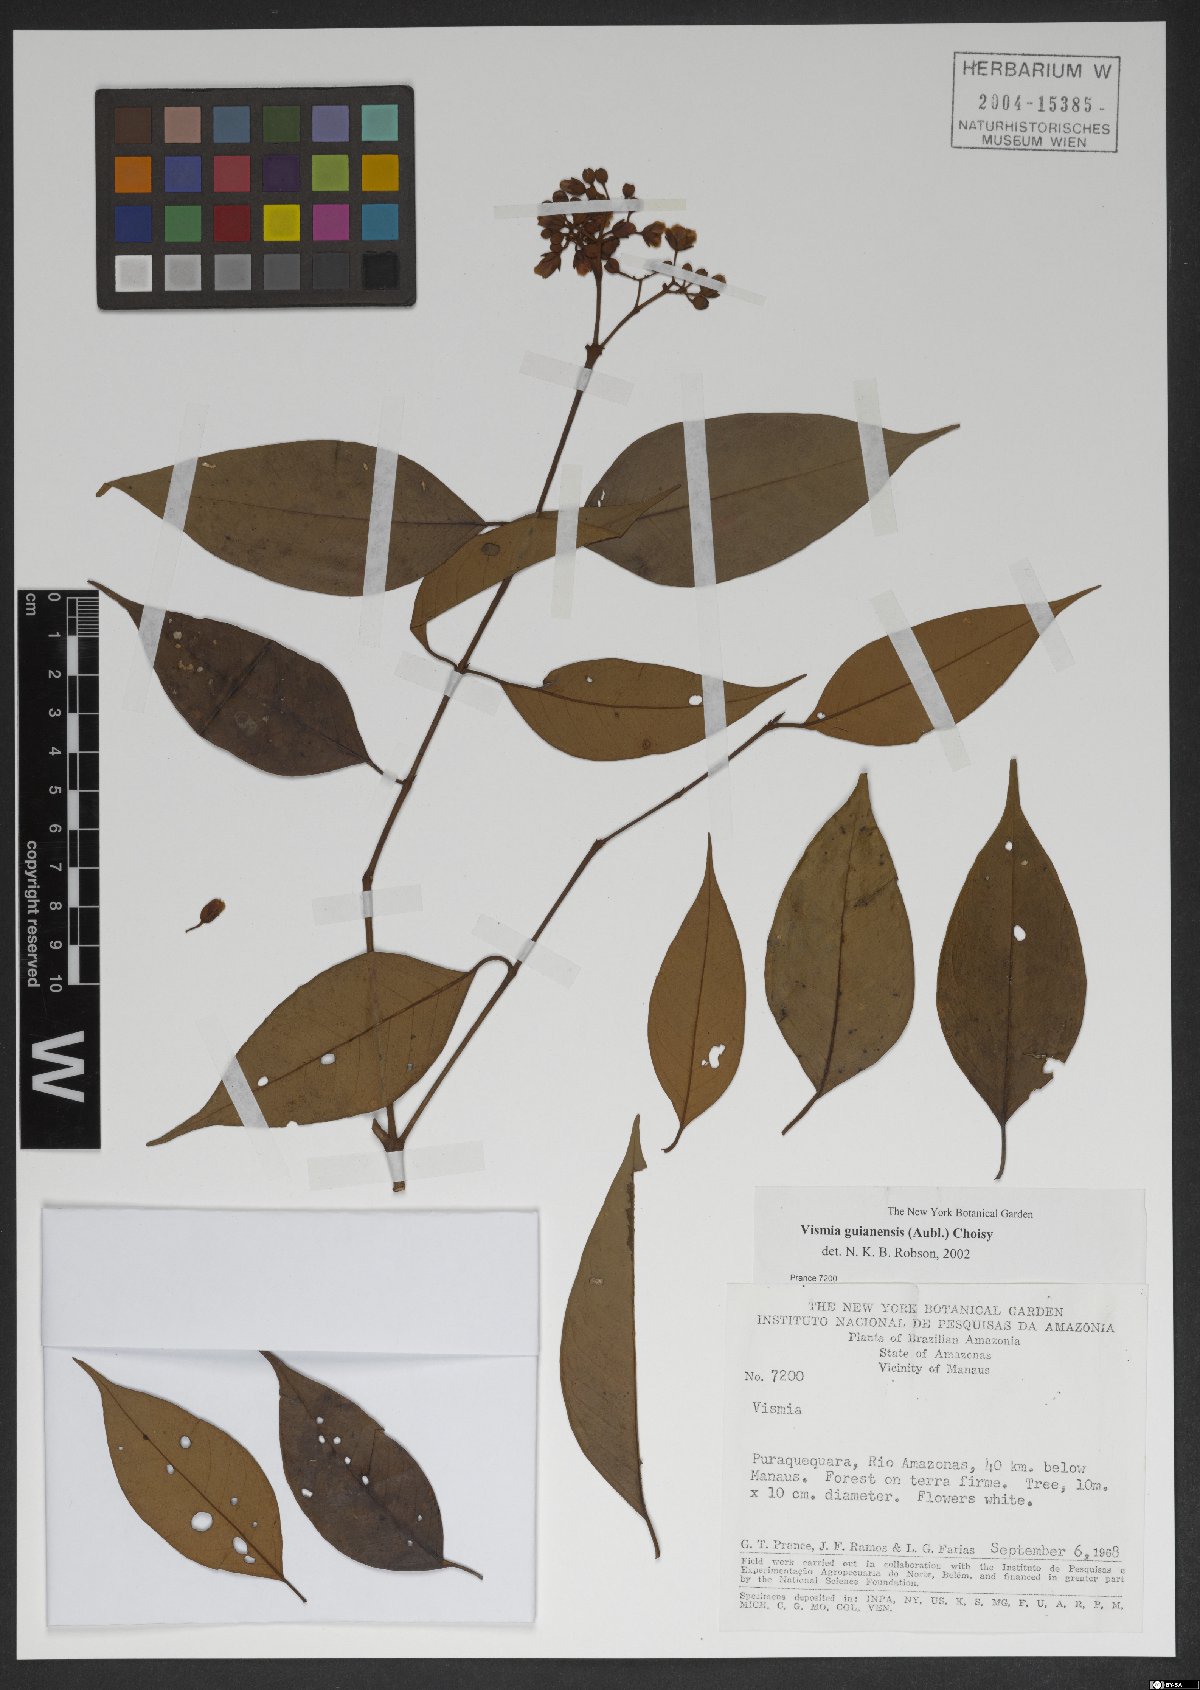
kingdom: Plantae
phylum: Tracheophyta
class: Magnoliopsida
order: Malpighiales
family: Hypericaceae
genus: Vismia
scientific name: Vismia guianensis
